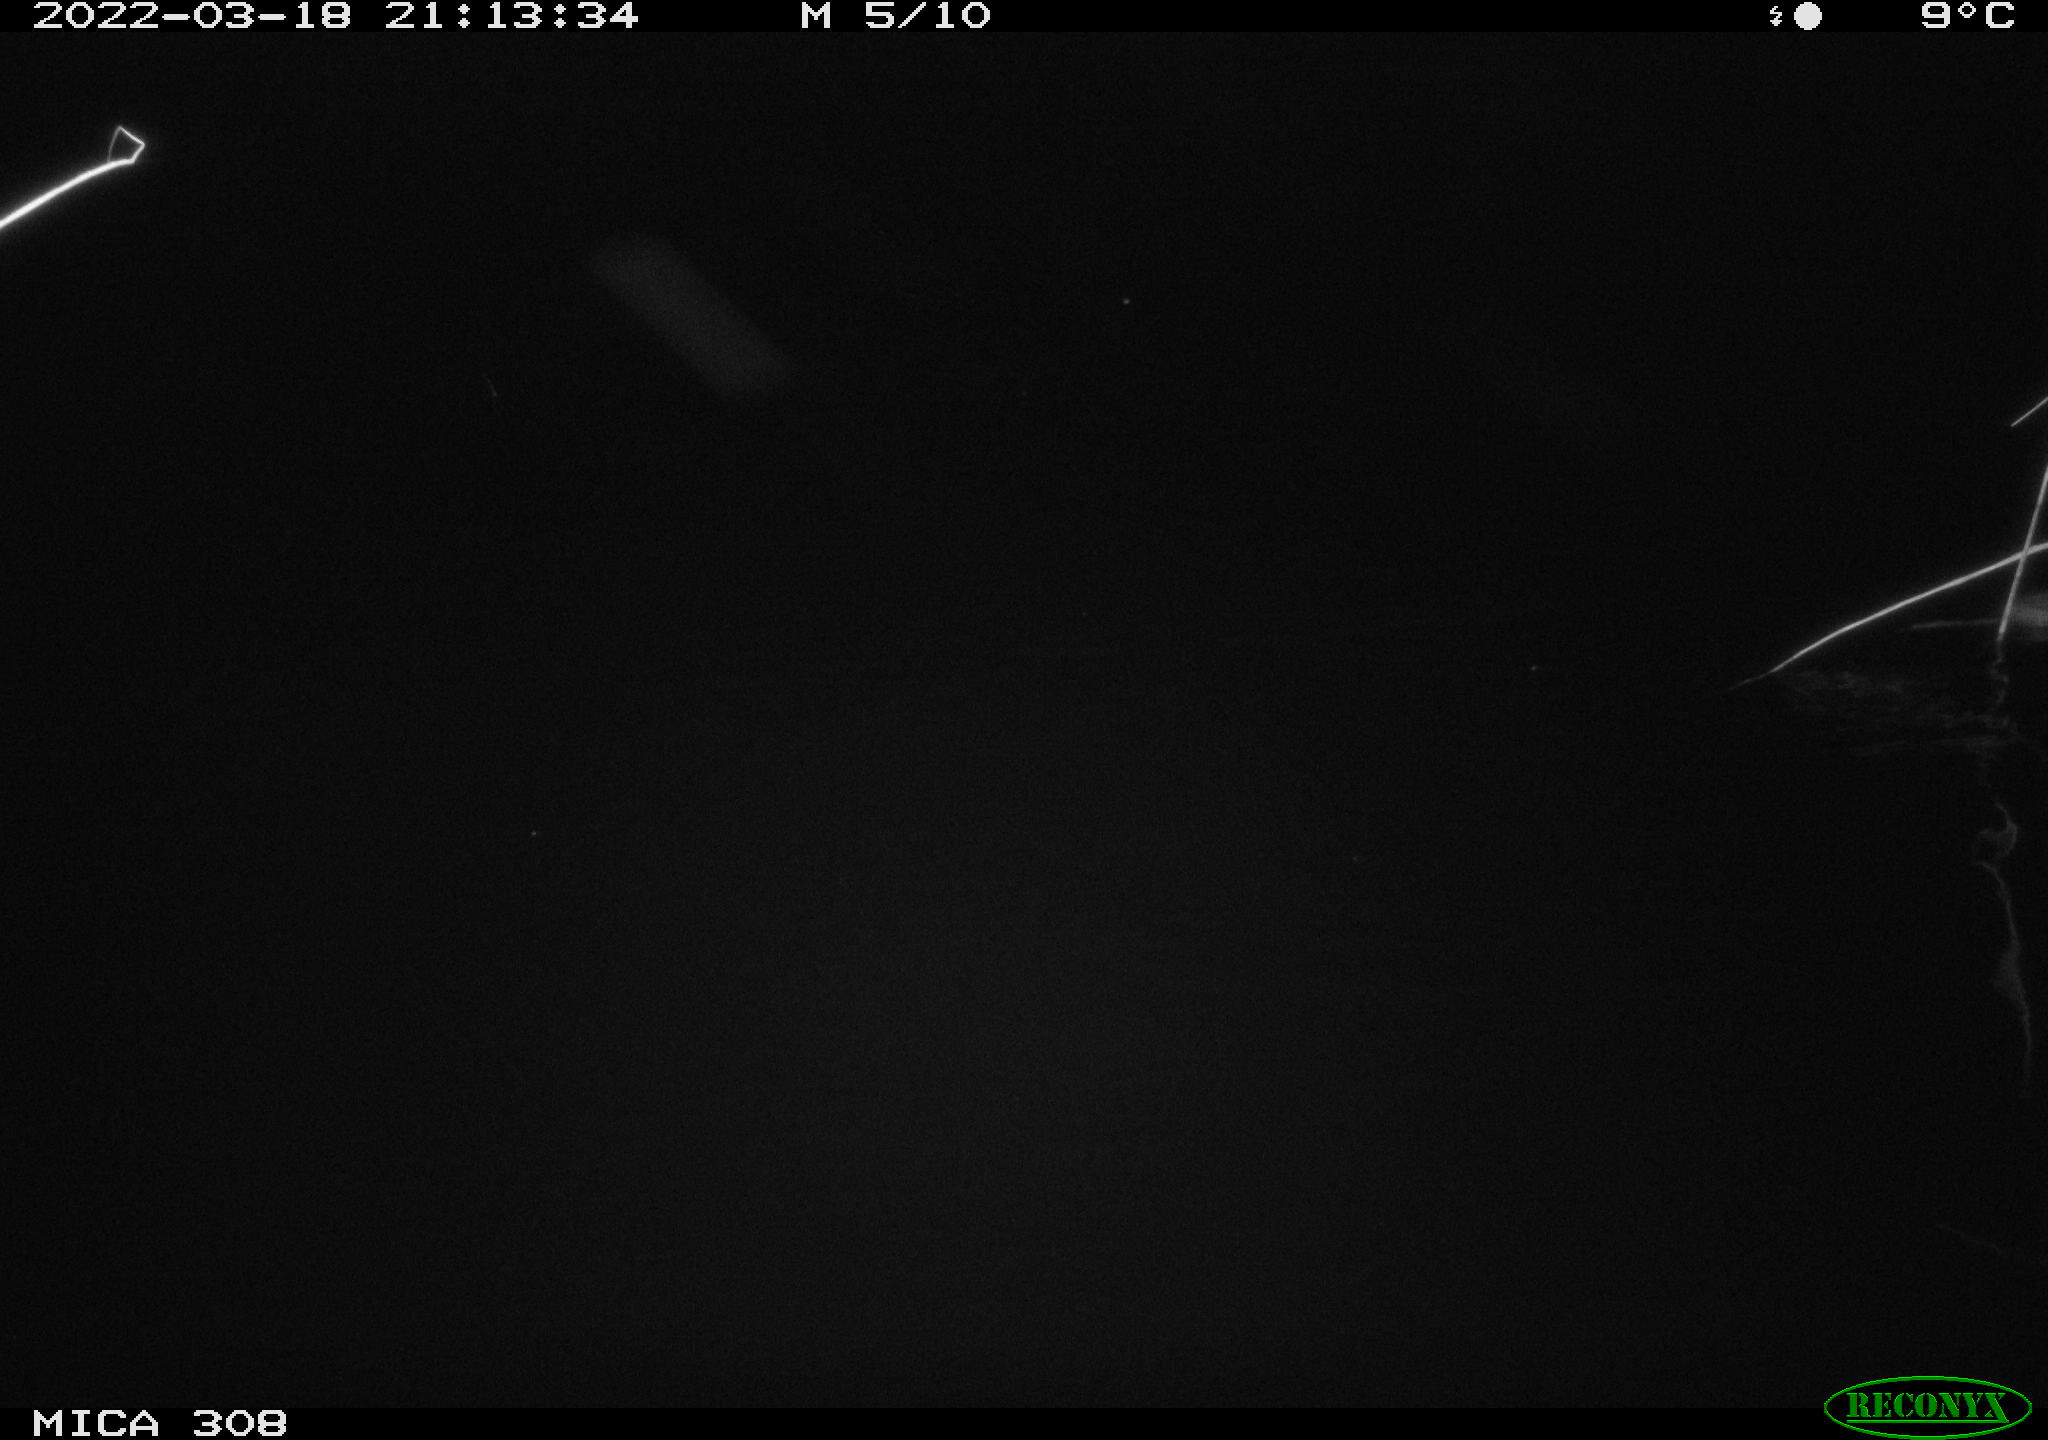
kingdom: Animalia
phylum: Chordata
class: Mammalia
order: Rodentia
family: Cricetidae
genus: Ondatra
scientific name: Ondatra zibethicus
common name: Muskrat
